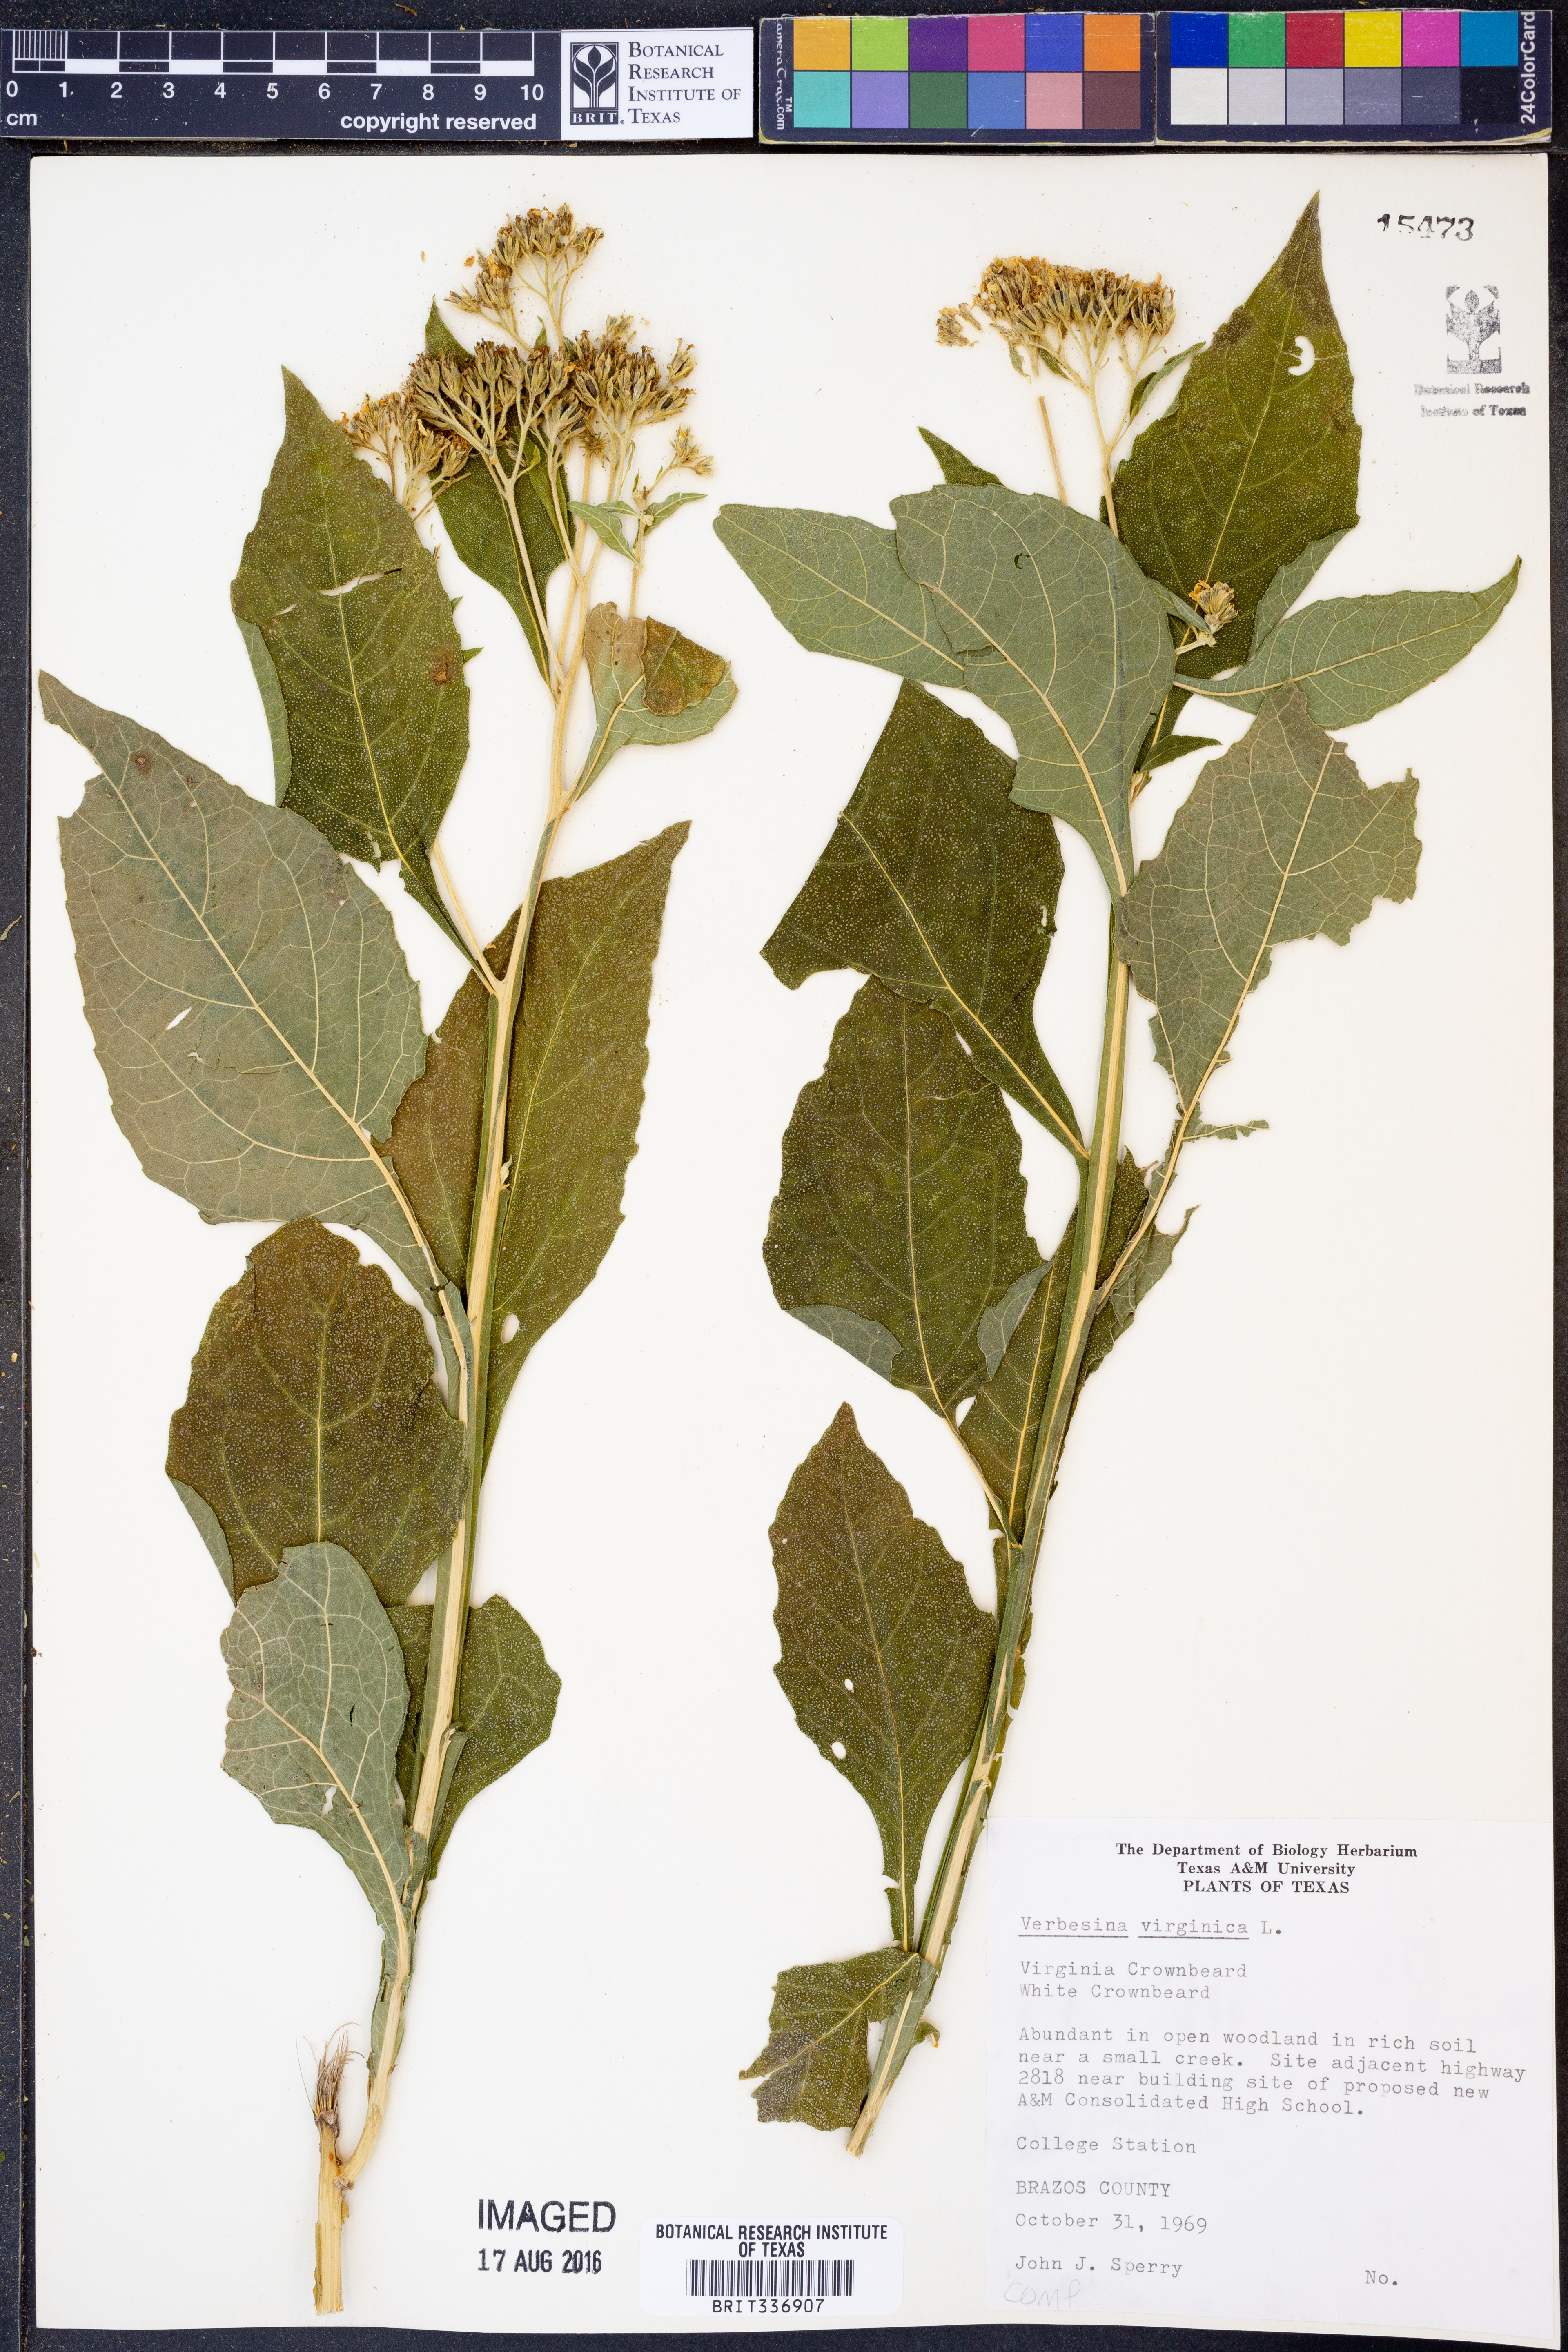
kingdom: Plantae
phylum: Tracheophyta
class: Magnoliopsida
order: Asterales
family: Asteraceae
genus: Verbesina
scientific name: Verbesina virginica
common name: Frostweed
